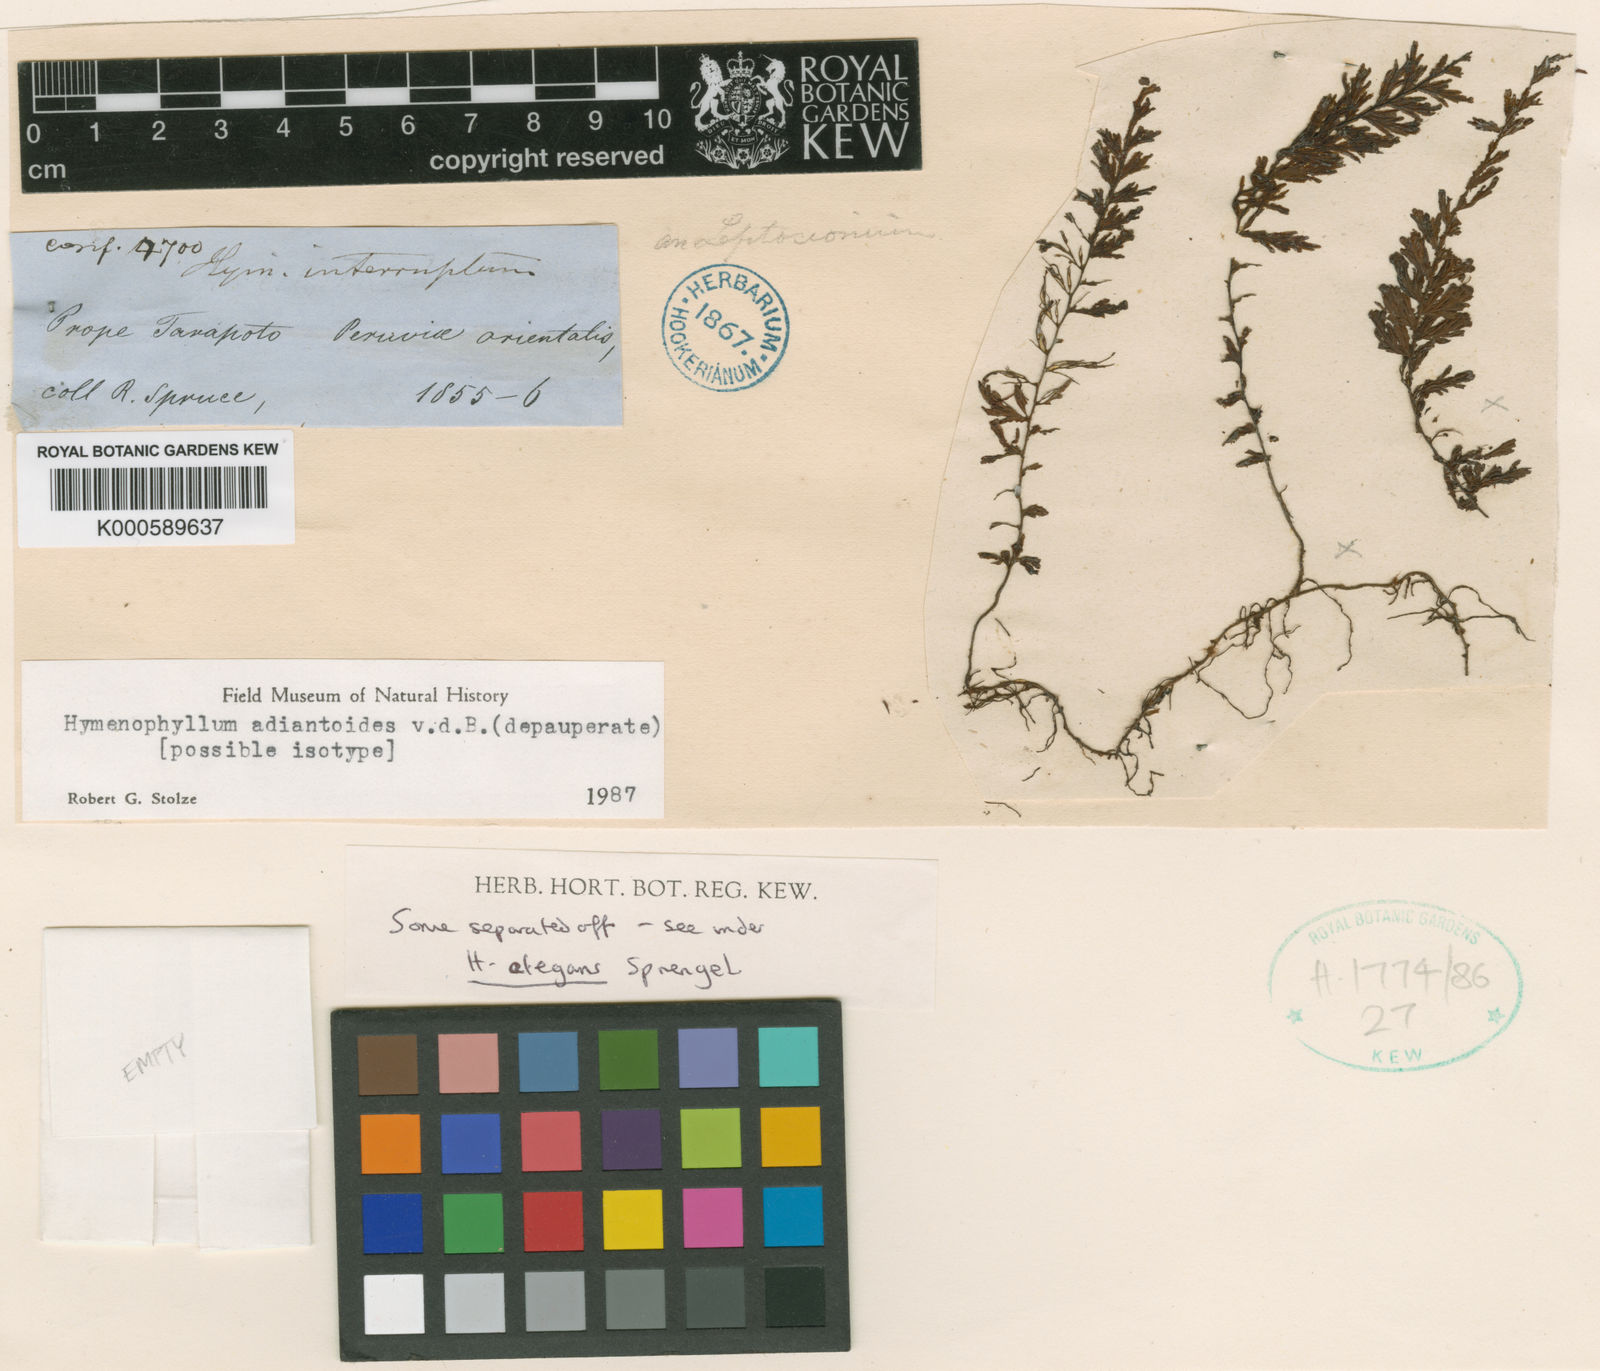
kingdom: Plantae
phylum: Tracheophyta
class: Polypodiopsida
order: Hymenophyllales
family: Hymenophyllaceae
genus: Hymenophyllum
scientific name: Hymenophyllum interruptum
